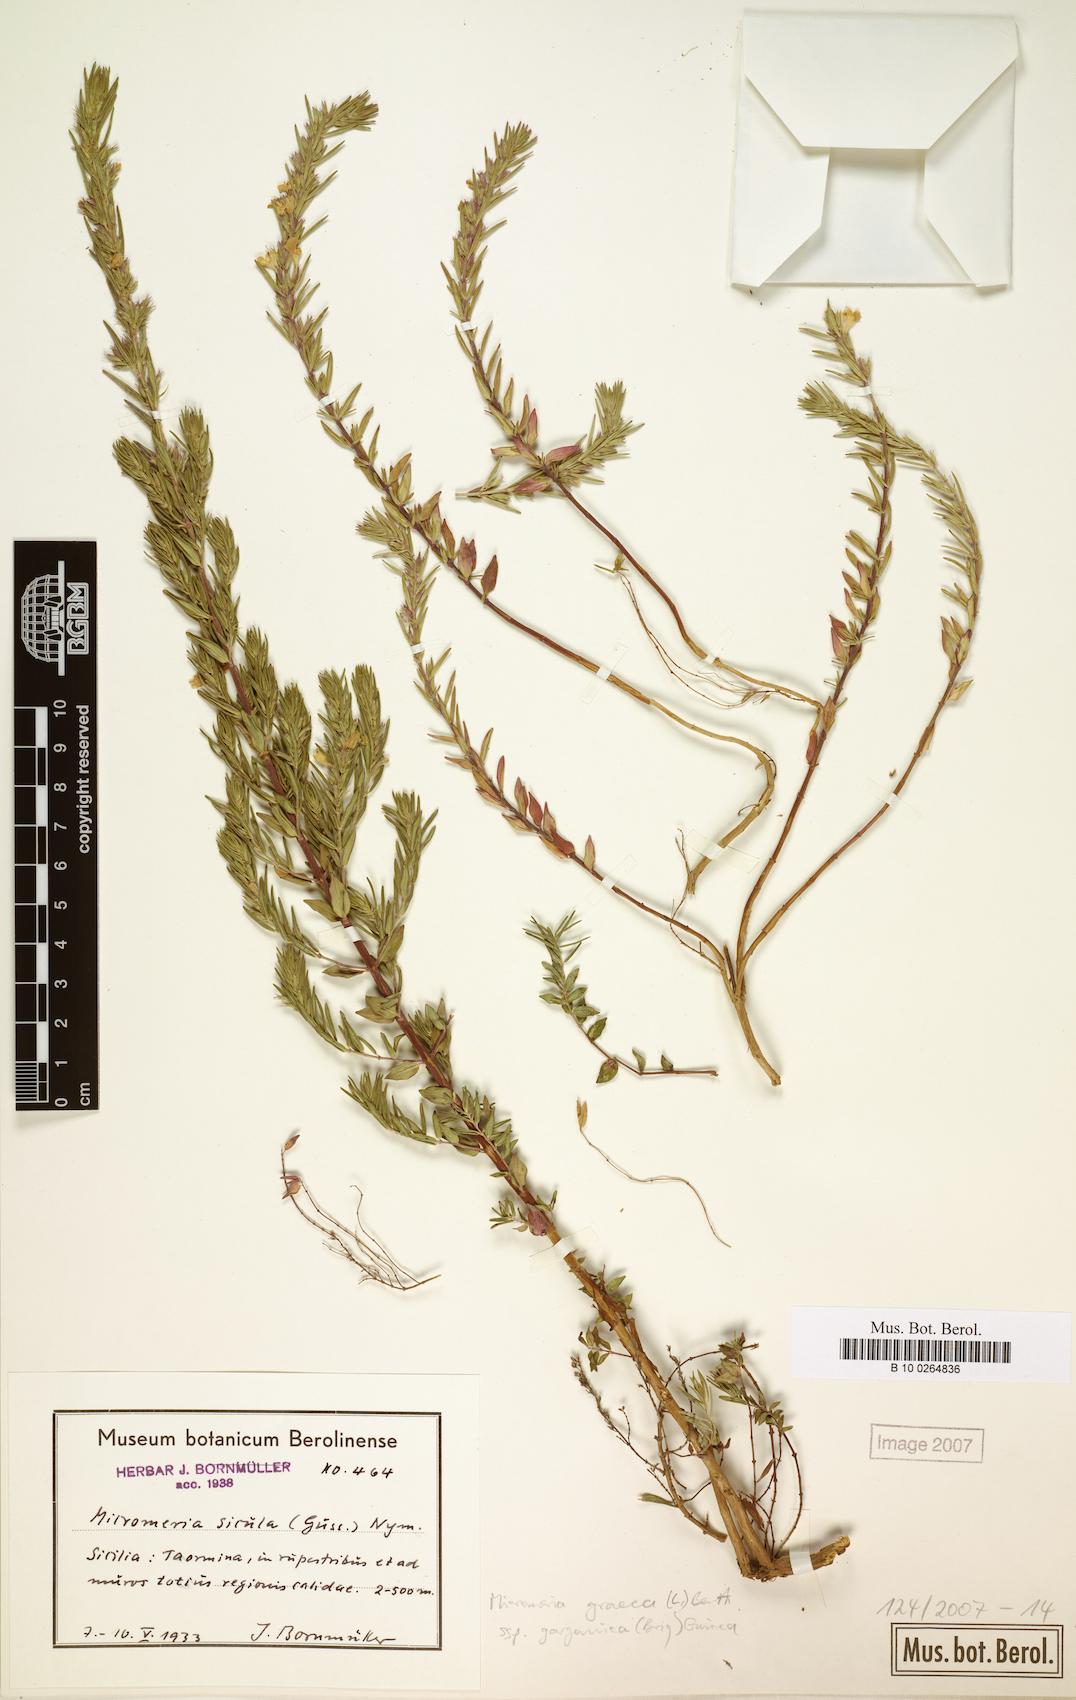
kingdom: Plantae
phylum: Tracheophyta
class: Magnoliopsida
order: Lamiales
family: Lamiaceae
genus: Micromeria
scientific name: Micromeria graeca
